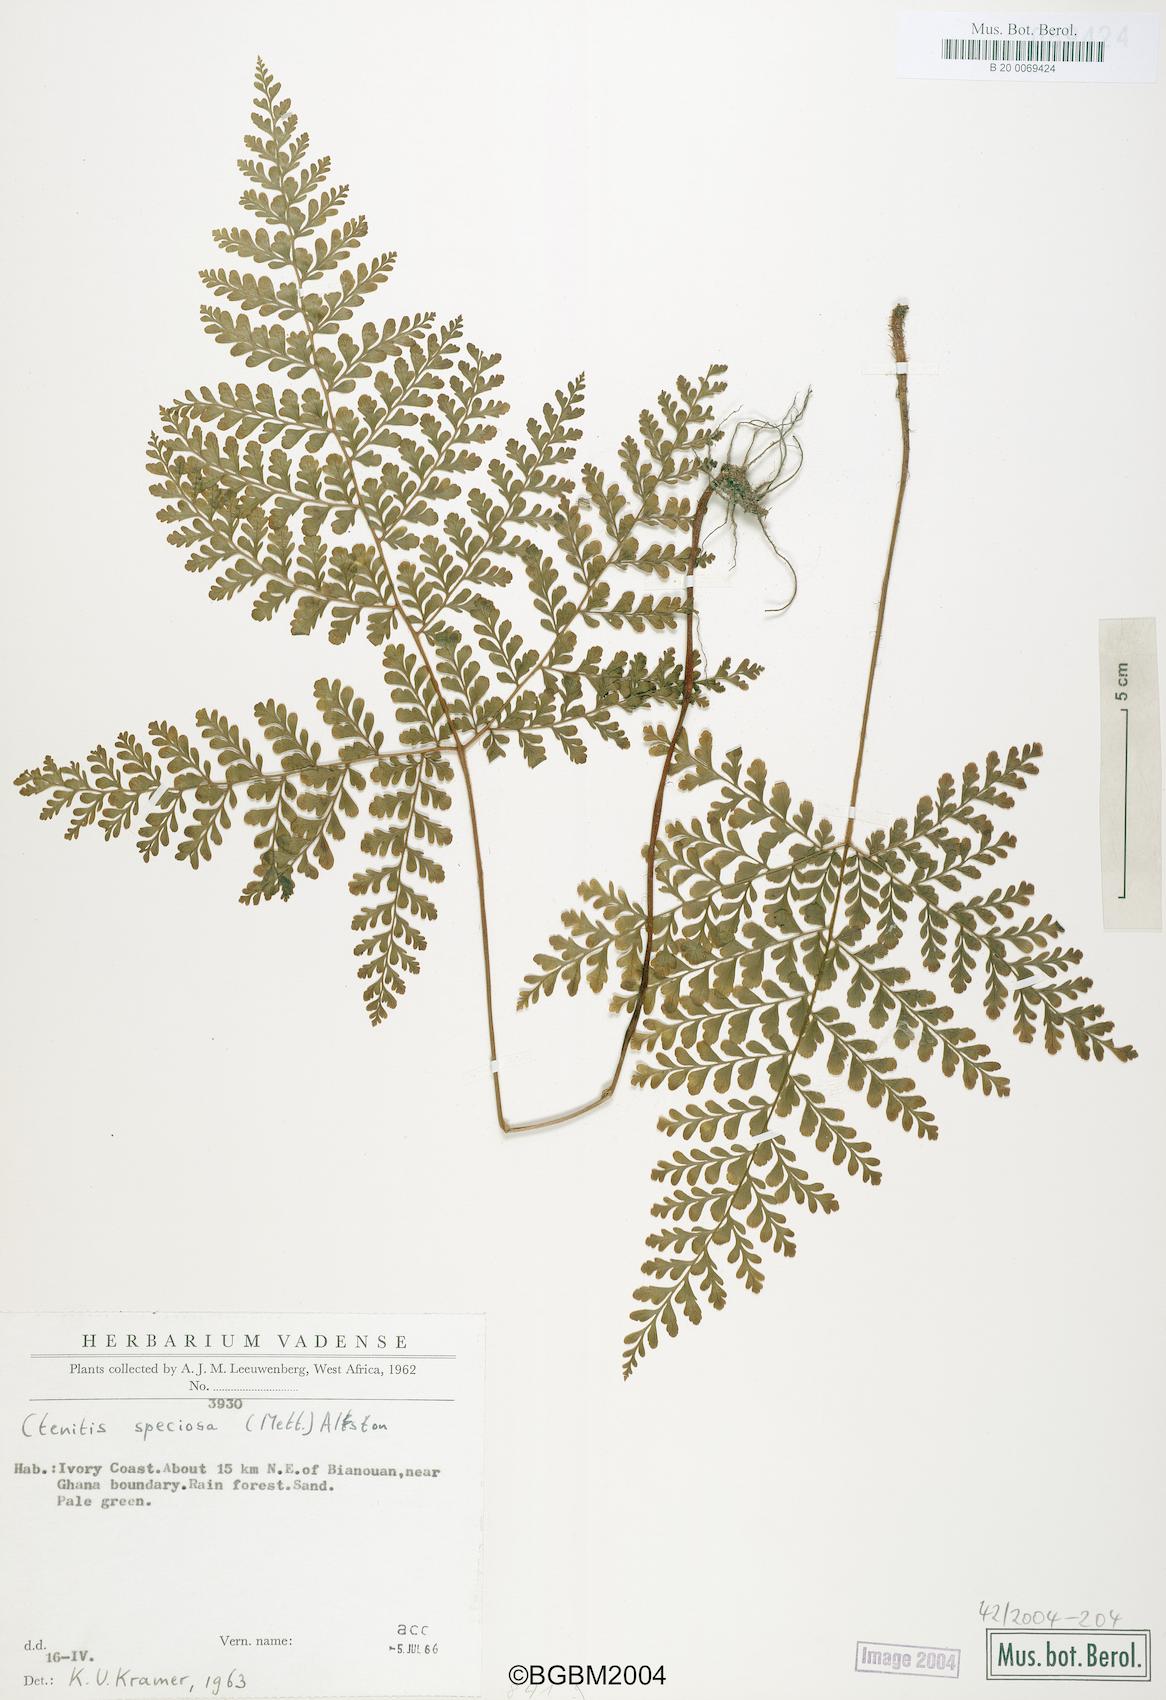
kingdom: Plantae
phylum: Tracheophyta
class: Polypodiopsida
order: Polypodiales
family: Tectariaceae
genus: Triplophyllum
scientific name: Triplophyllum vogelii
